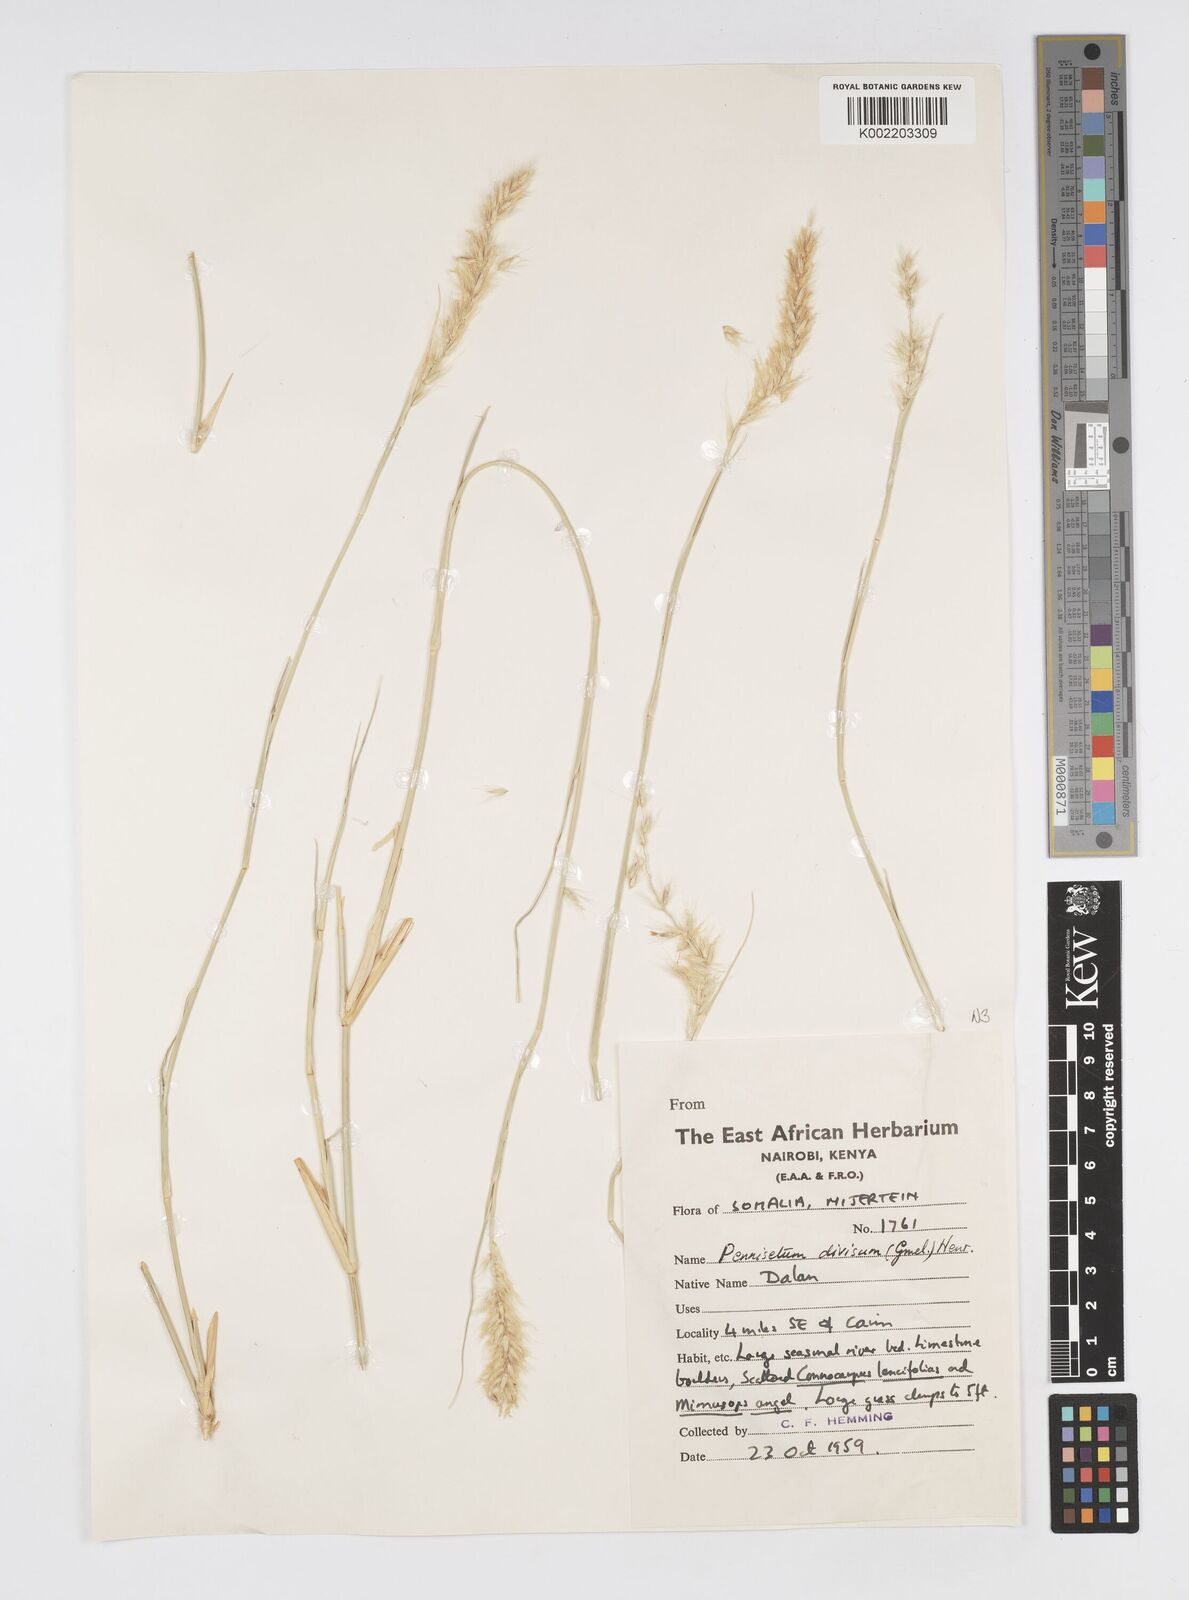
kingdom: Plantae
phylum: Tracheophyta
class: Liliopsida
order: Poales
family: Poaceae
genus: Cenchrus
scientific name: Cenchrus divisus
